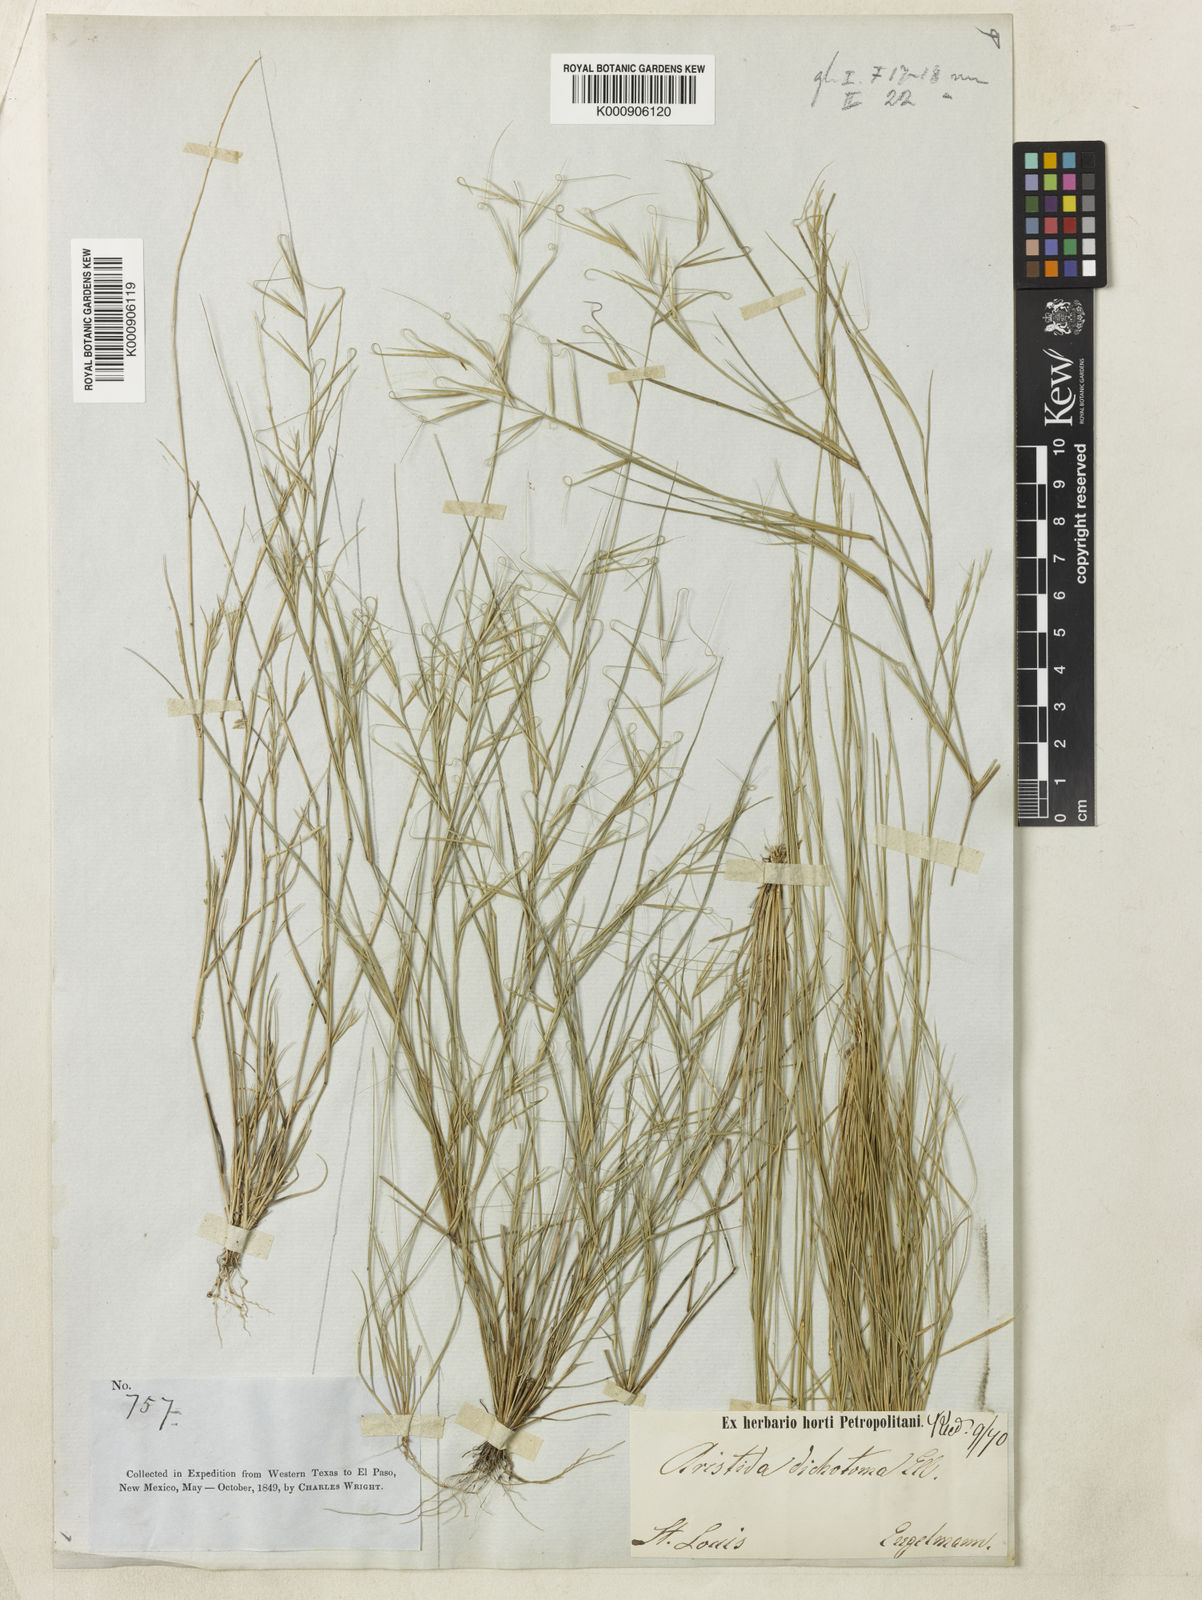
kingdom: Plantae
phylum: Tracheophyta
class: Liliopsida
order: Poales
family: Poaceae
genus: Aristida
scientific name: Aristida ramosissima
